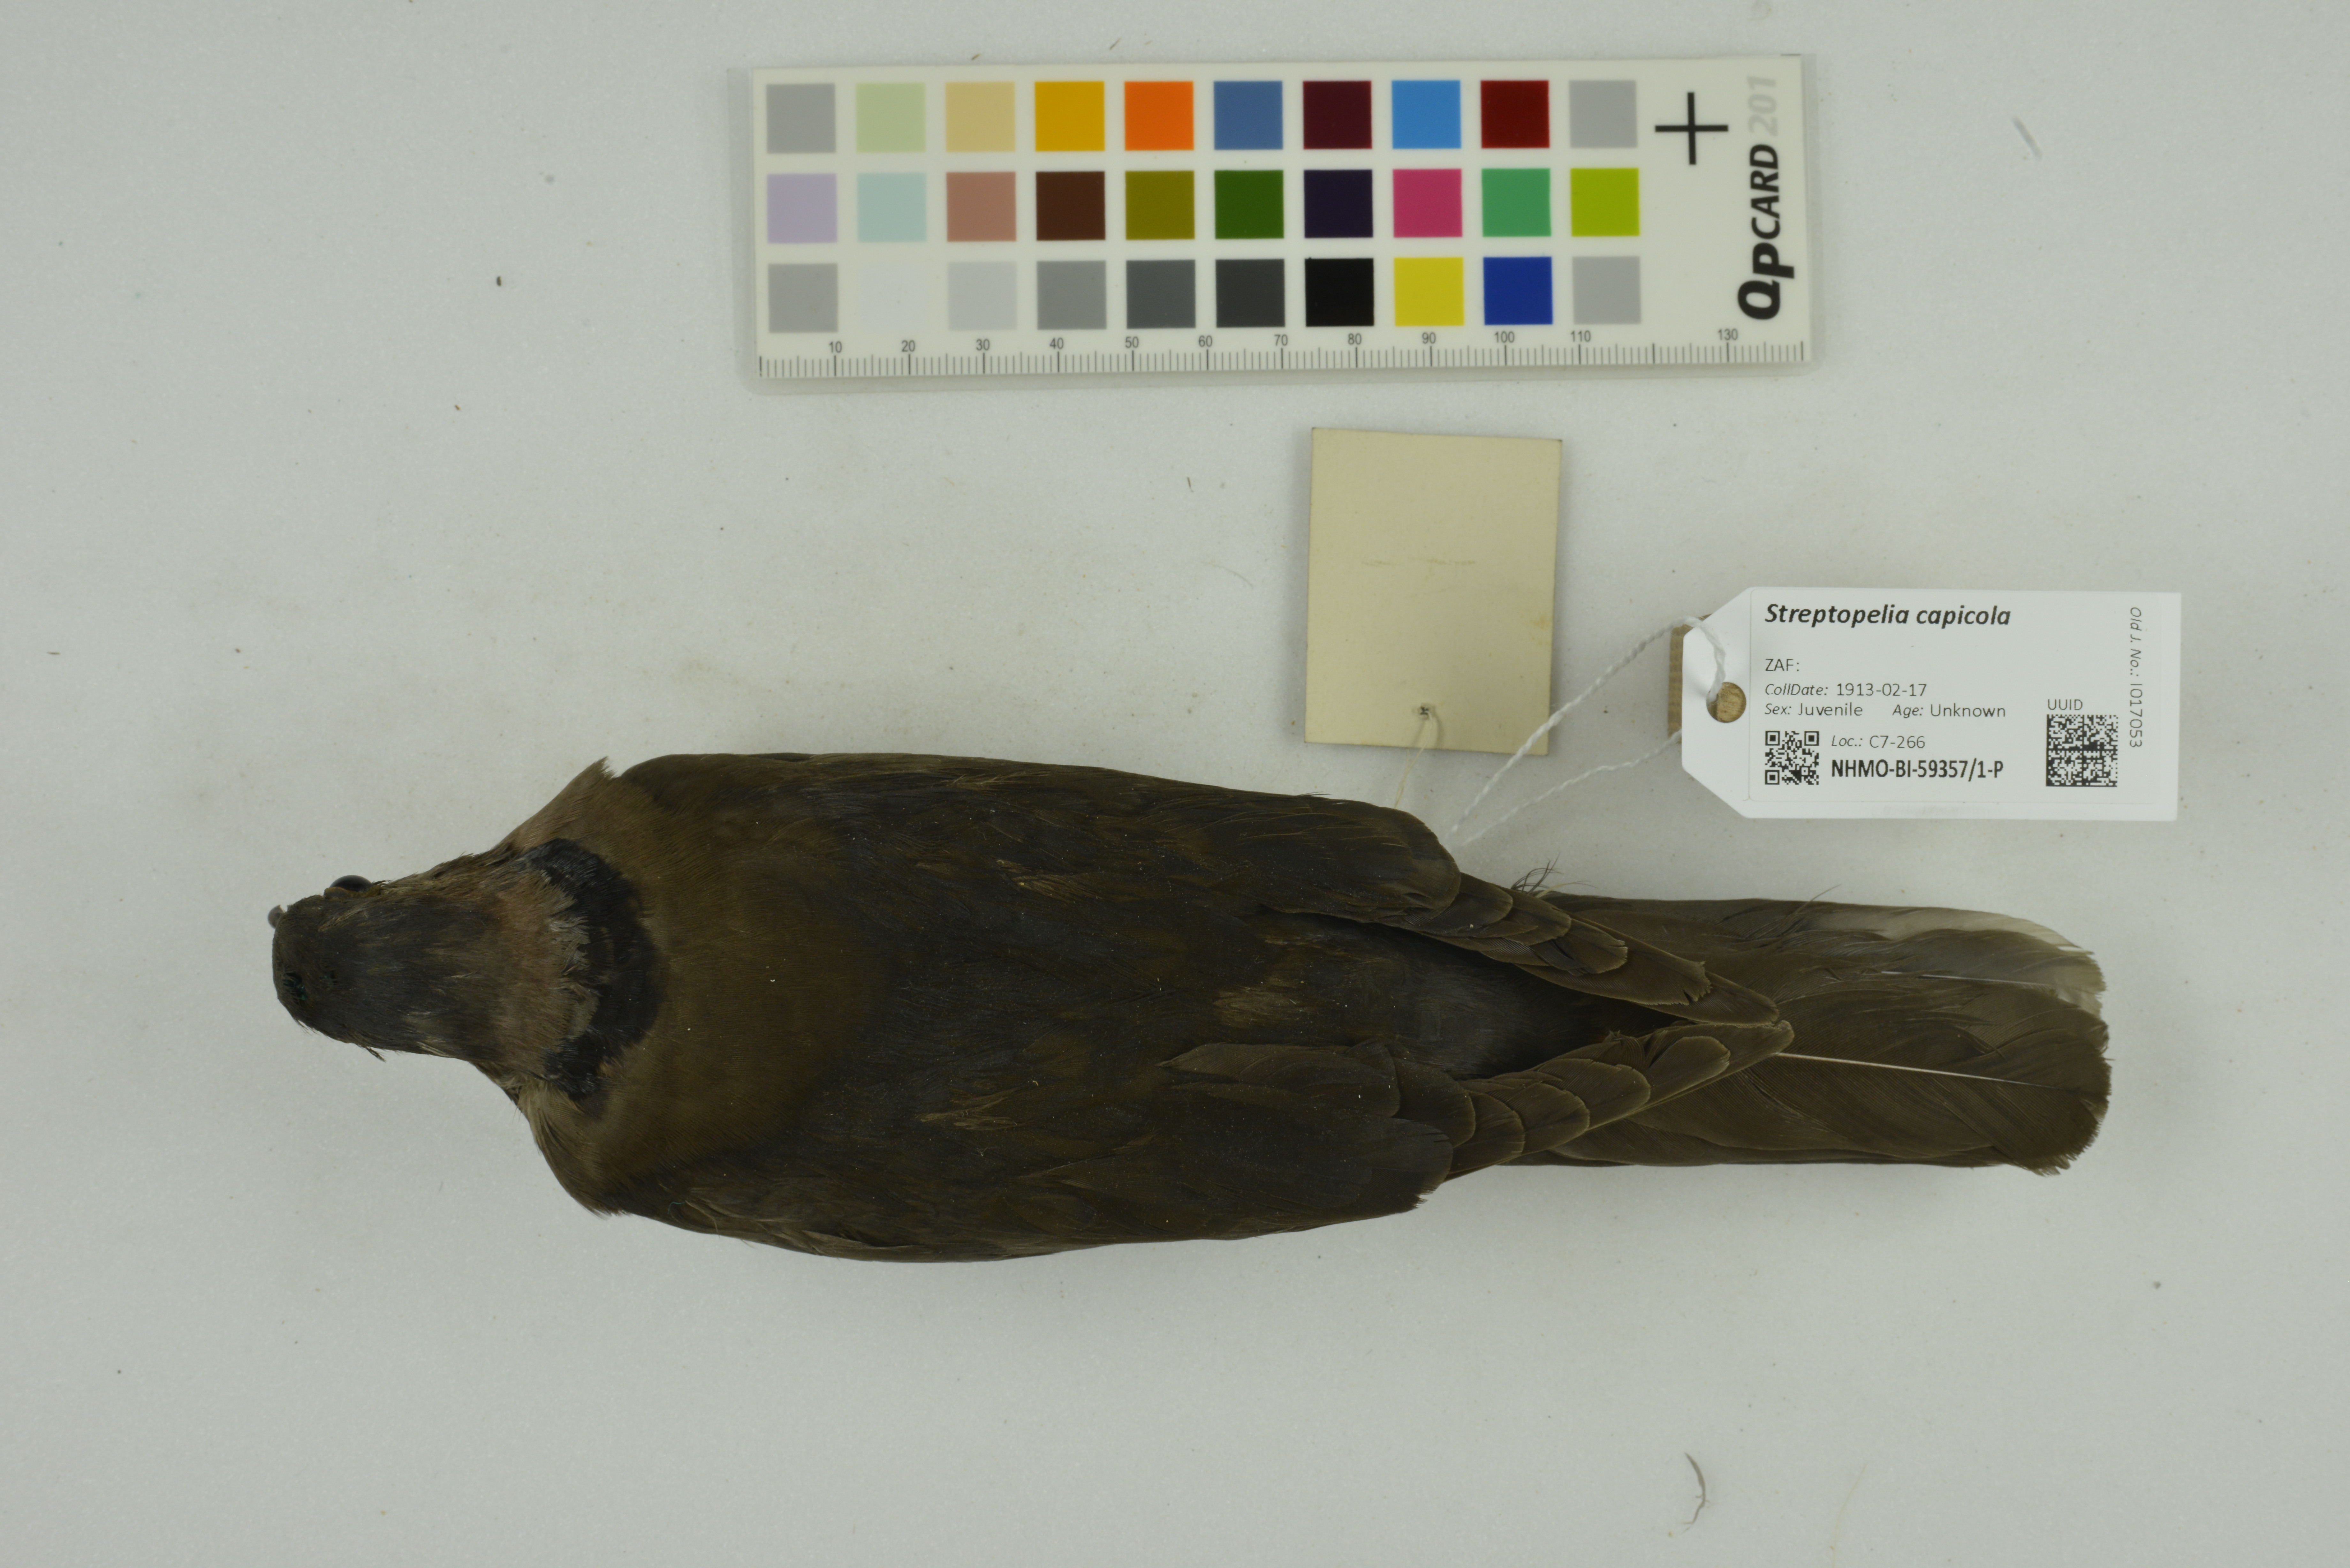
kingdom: Animalia
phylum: Chordata
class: Aves
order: Columbiformes
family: Columbidae
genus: Streptopelia
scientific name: Streptopelia capicola
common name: Ring-necked dove
